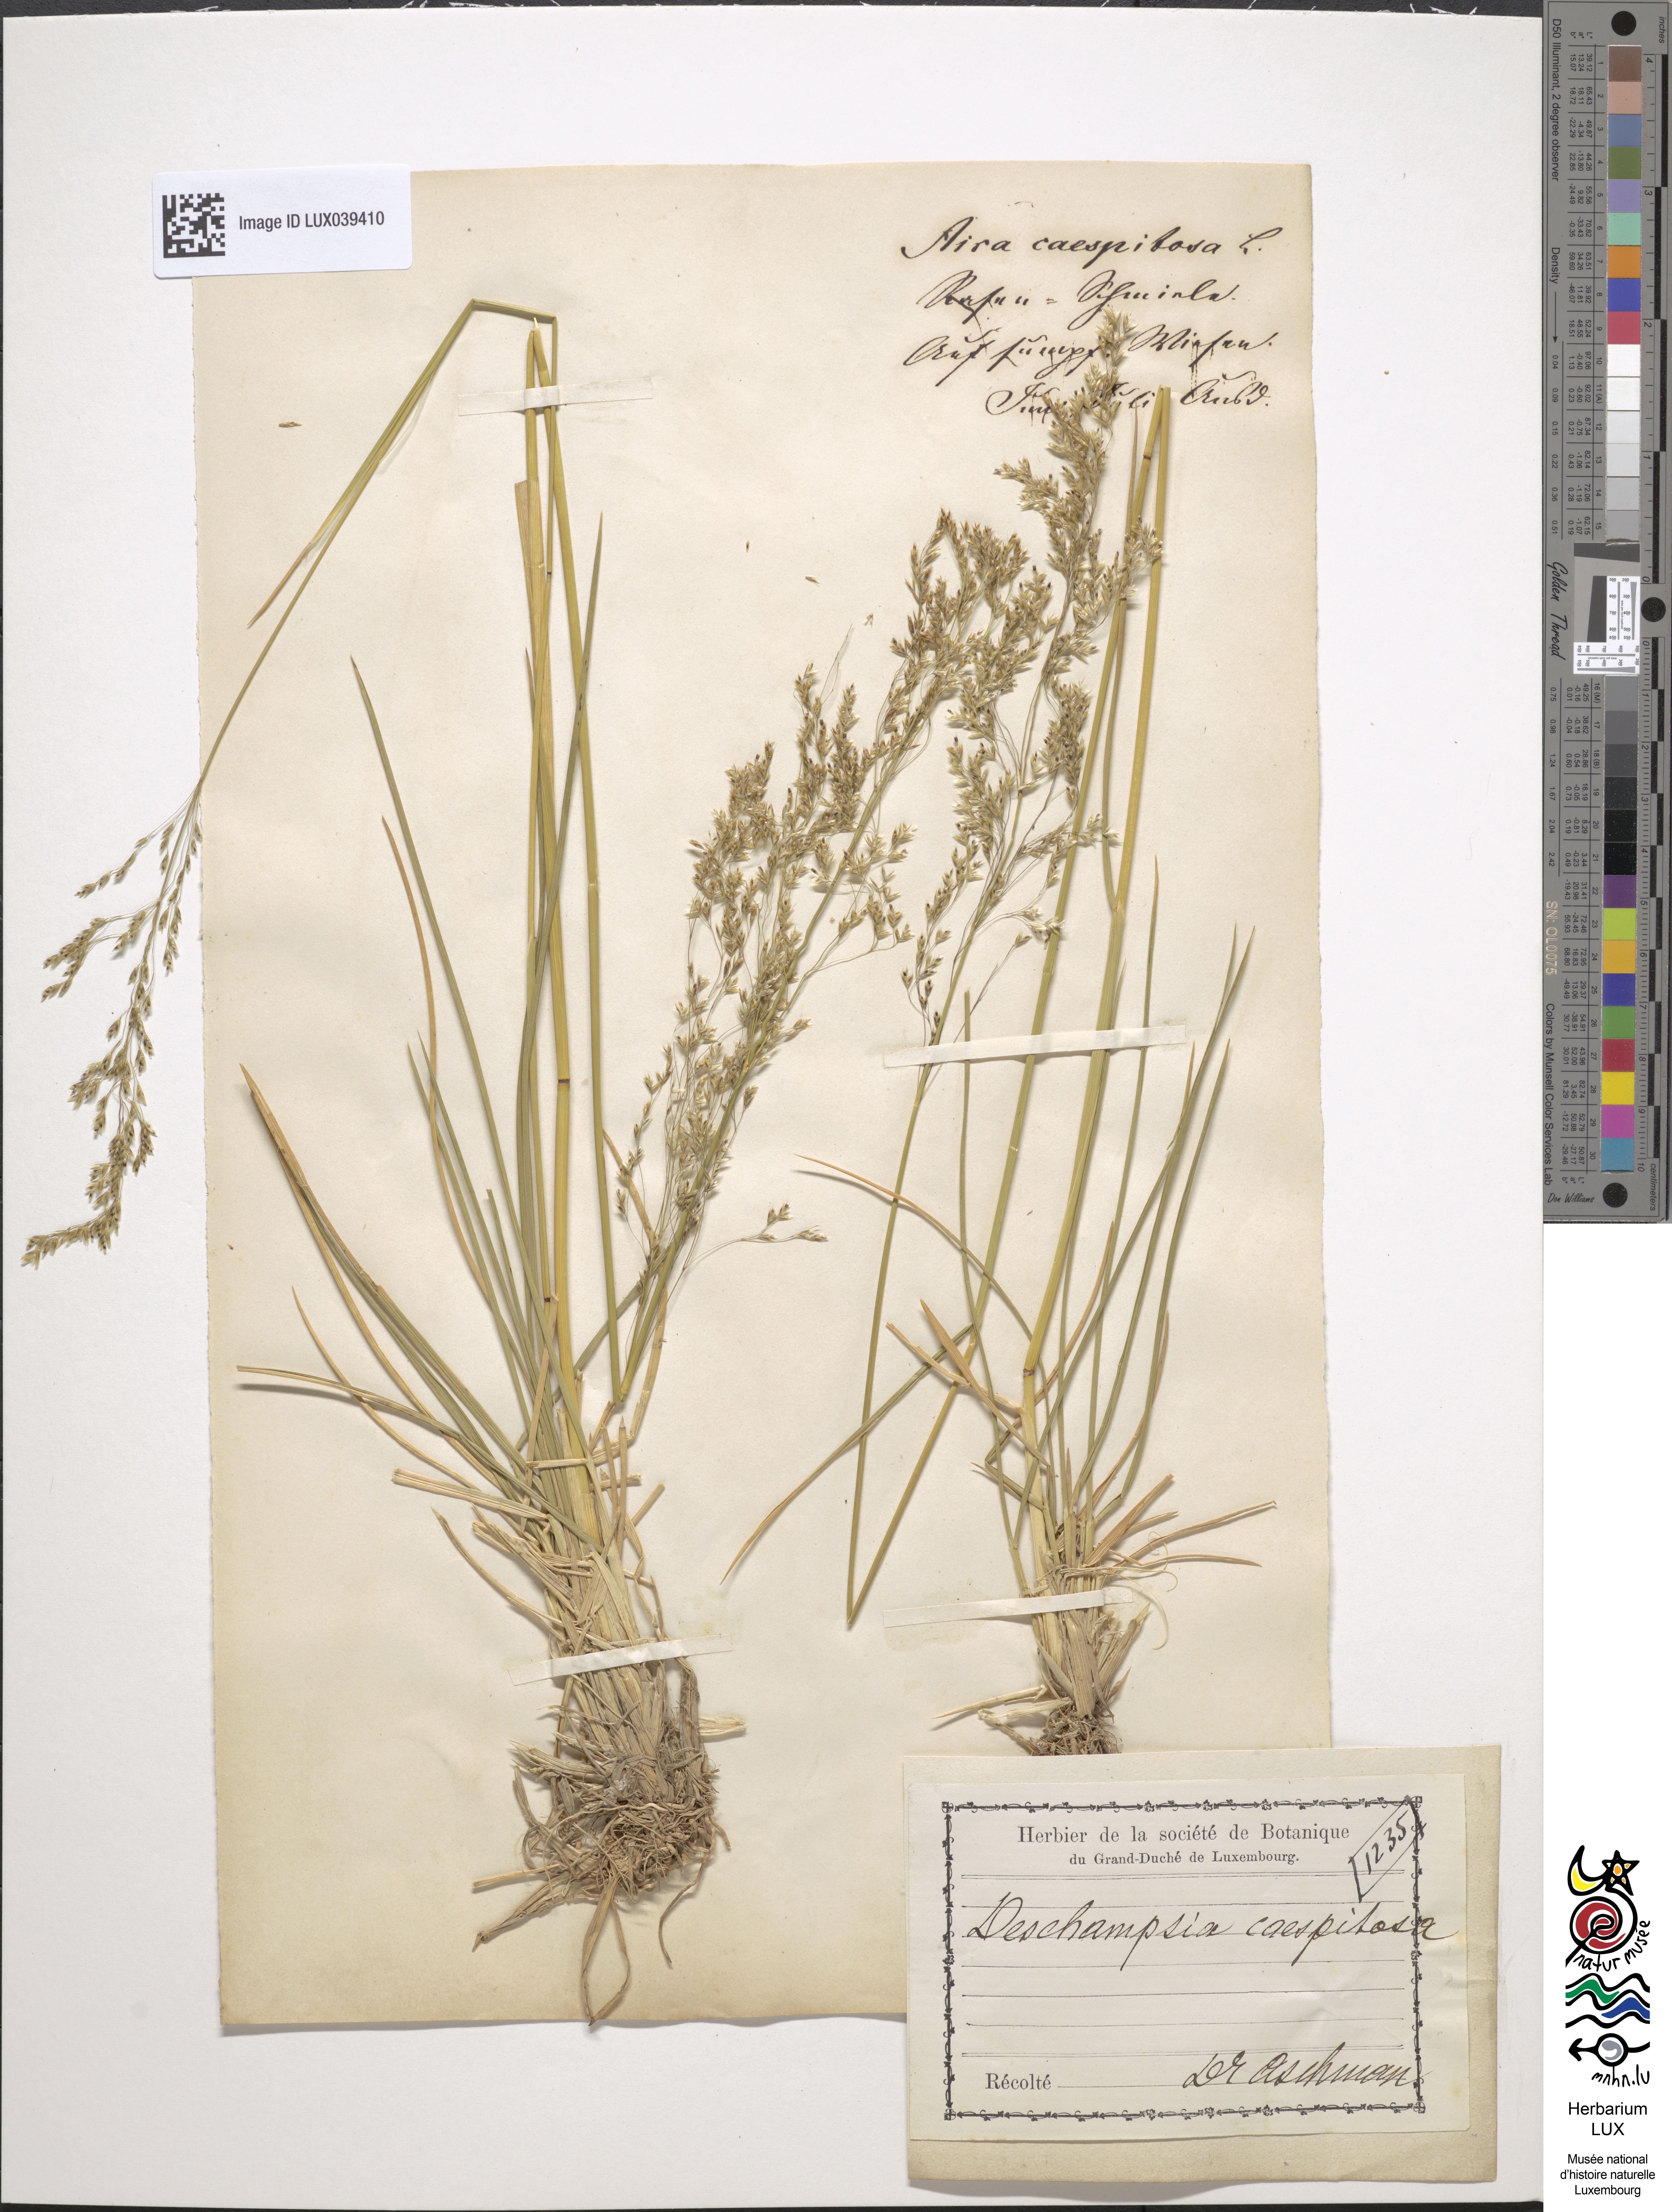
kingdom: Plantae
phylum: Tracheophyta
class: Liliopsida
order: Poales
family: Poaceae
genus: Deschampsia
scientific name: Deschampsia cespitosa
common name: Tufted hair-grass
